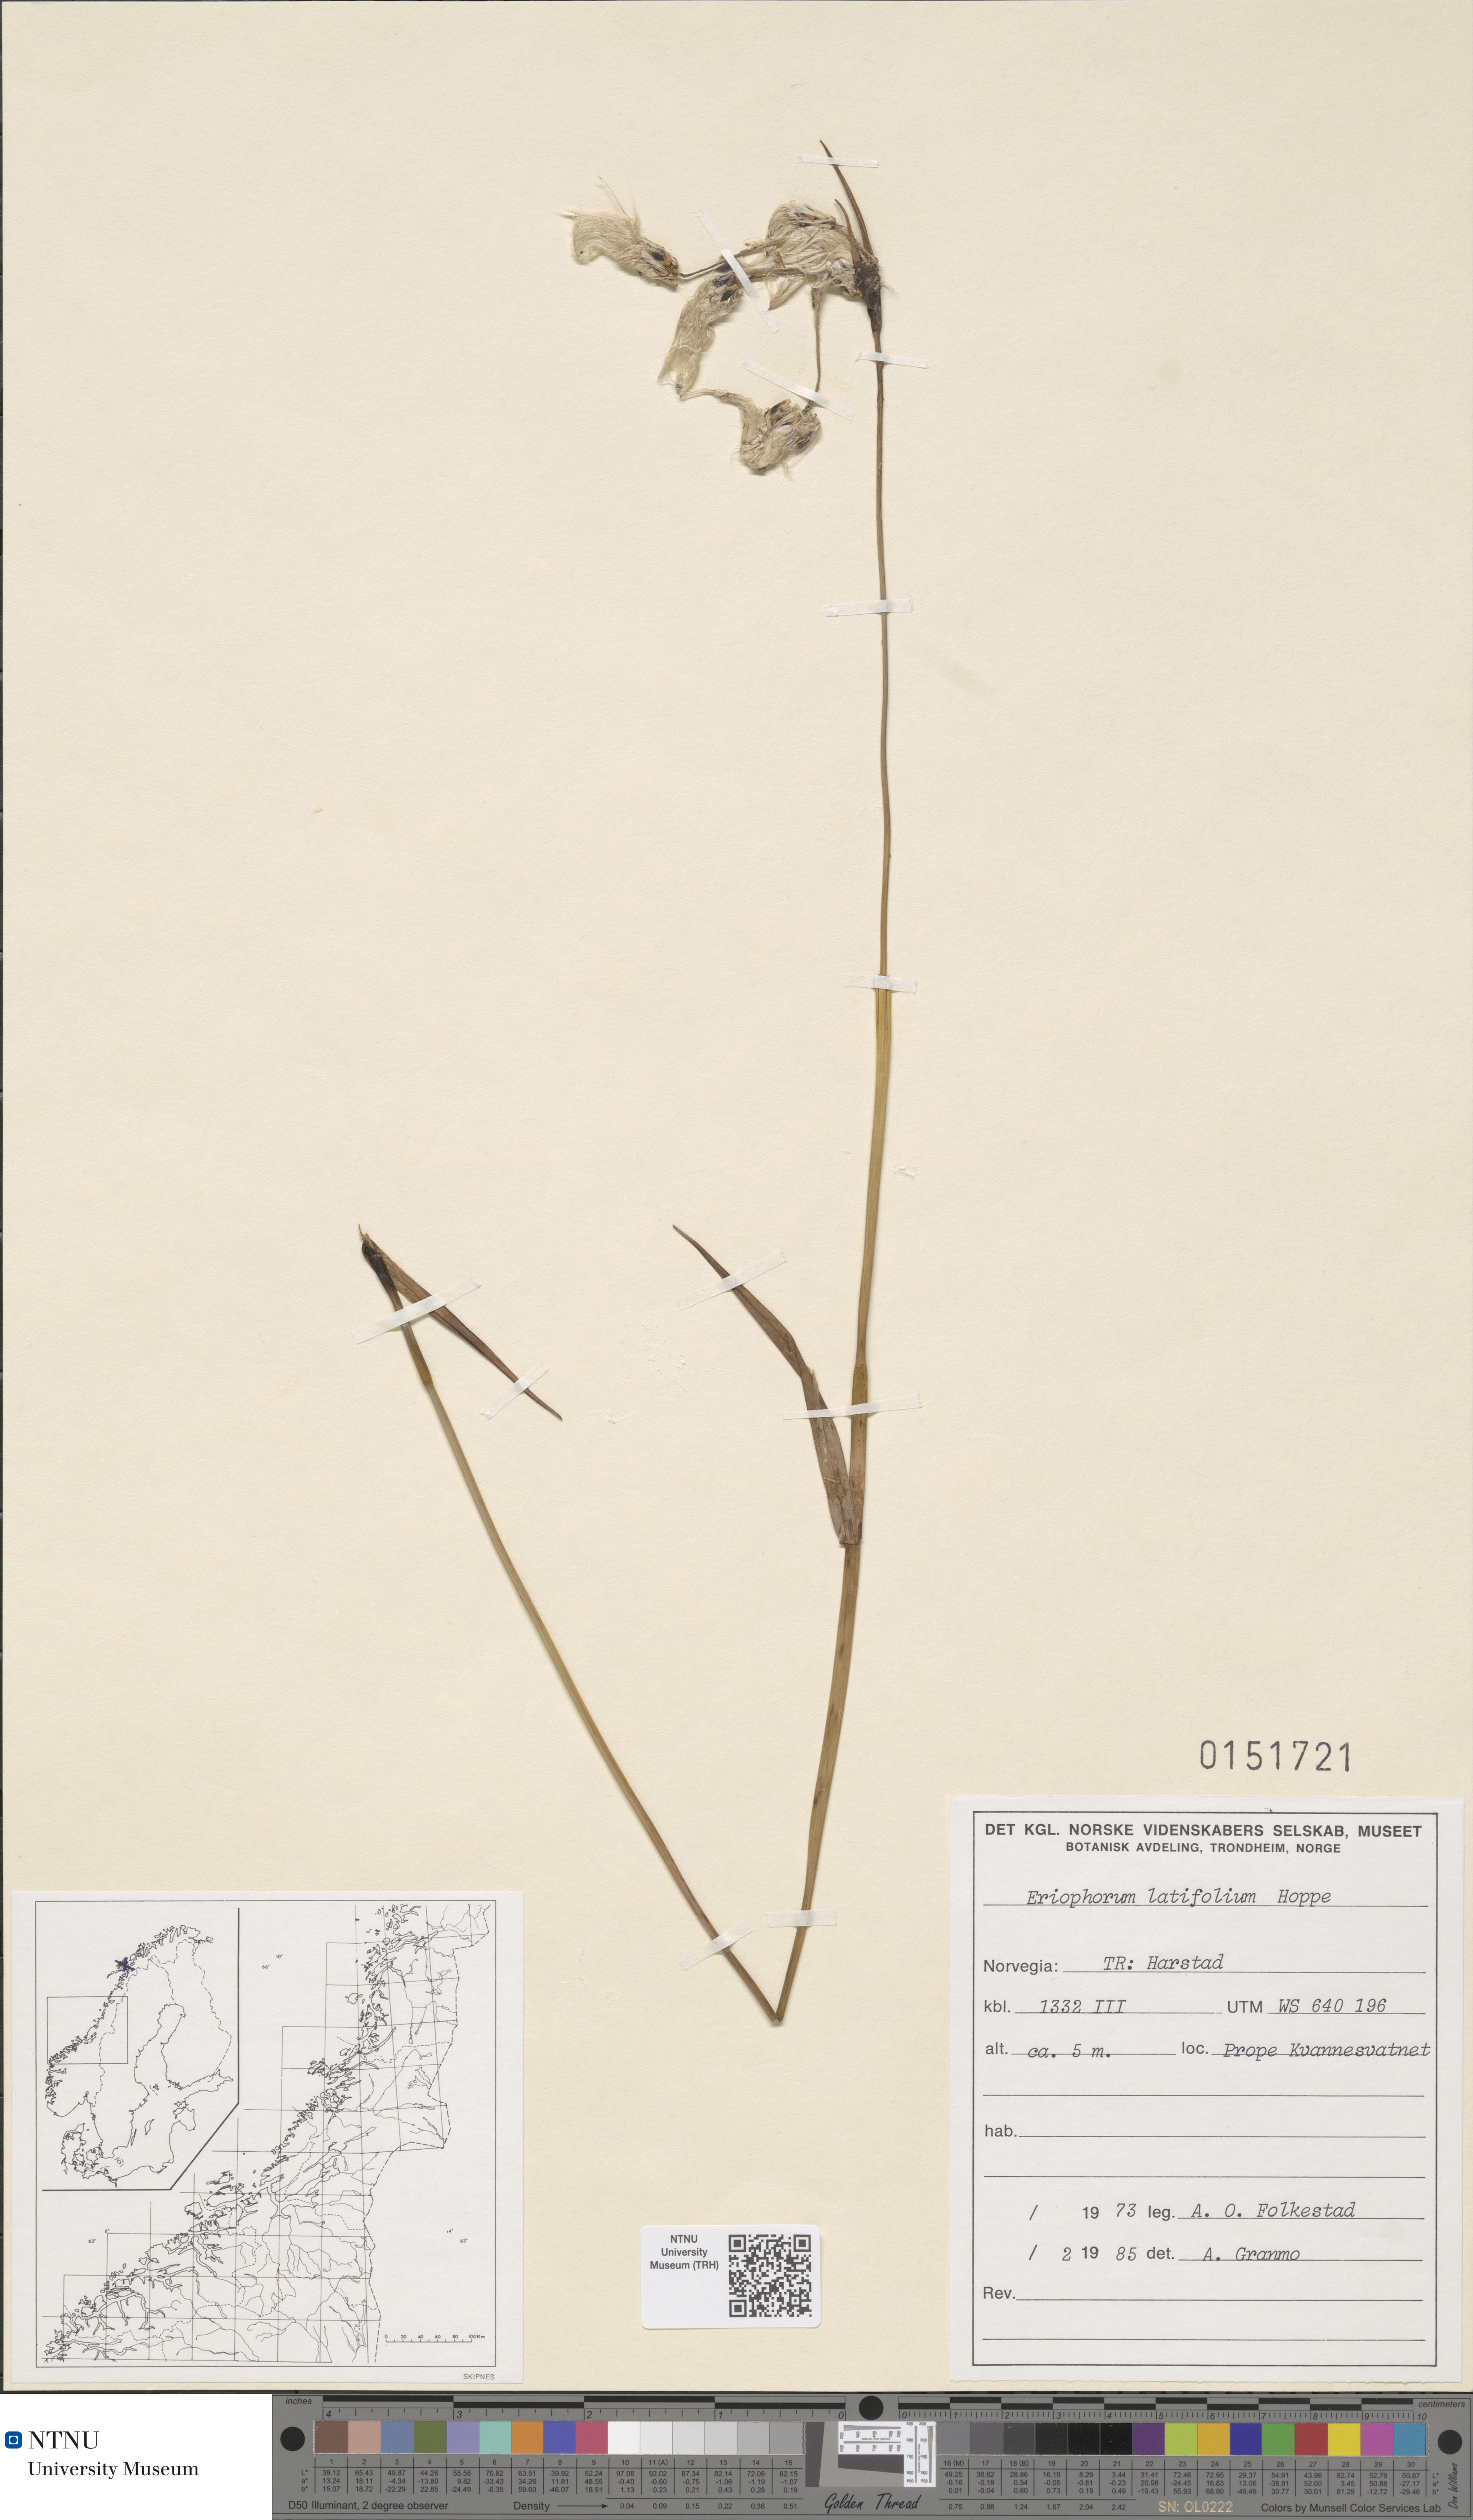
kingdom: Plantae
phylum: Tracheophyta
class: Liliopsida
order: Poales
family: Cyperaceae
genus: Eriophorum
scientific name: Eriophorum latifolium
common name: Broad-leaved cottongrass
